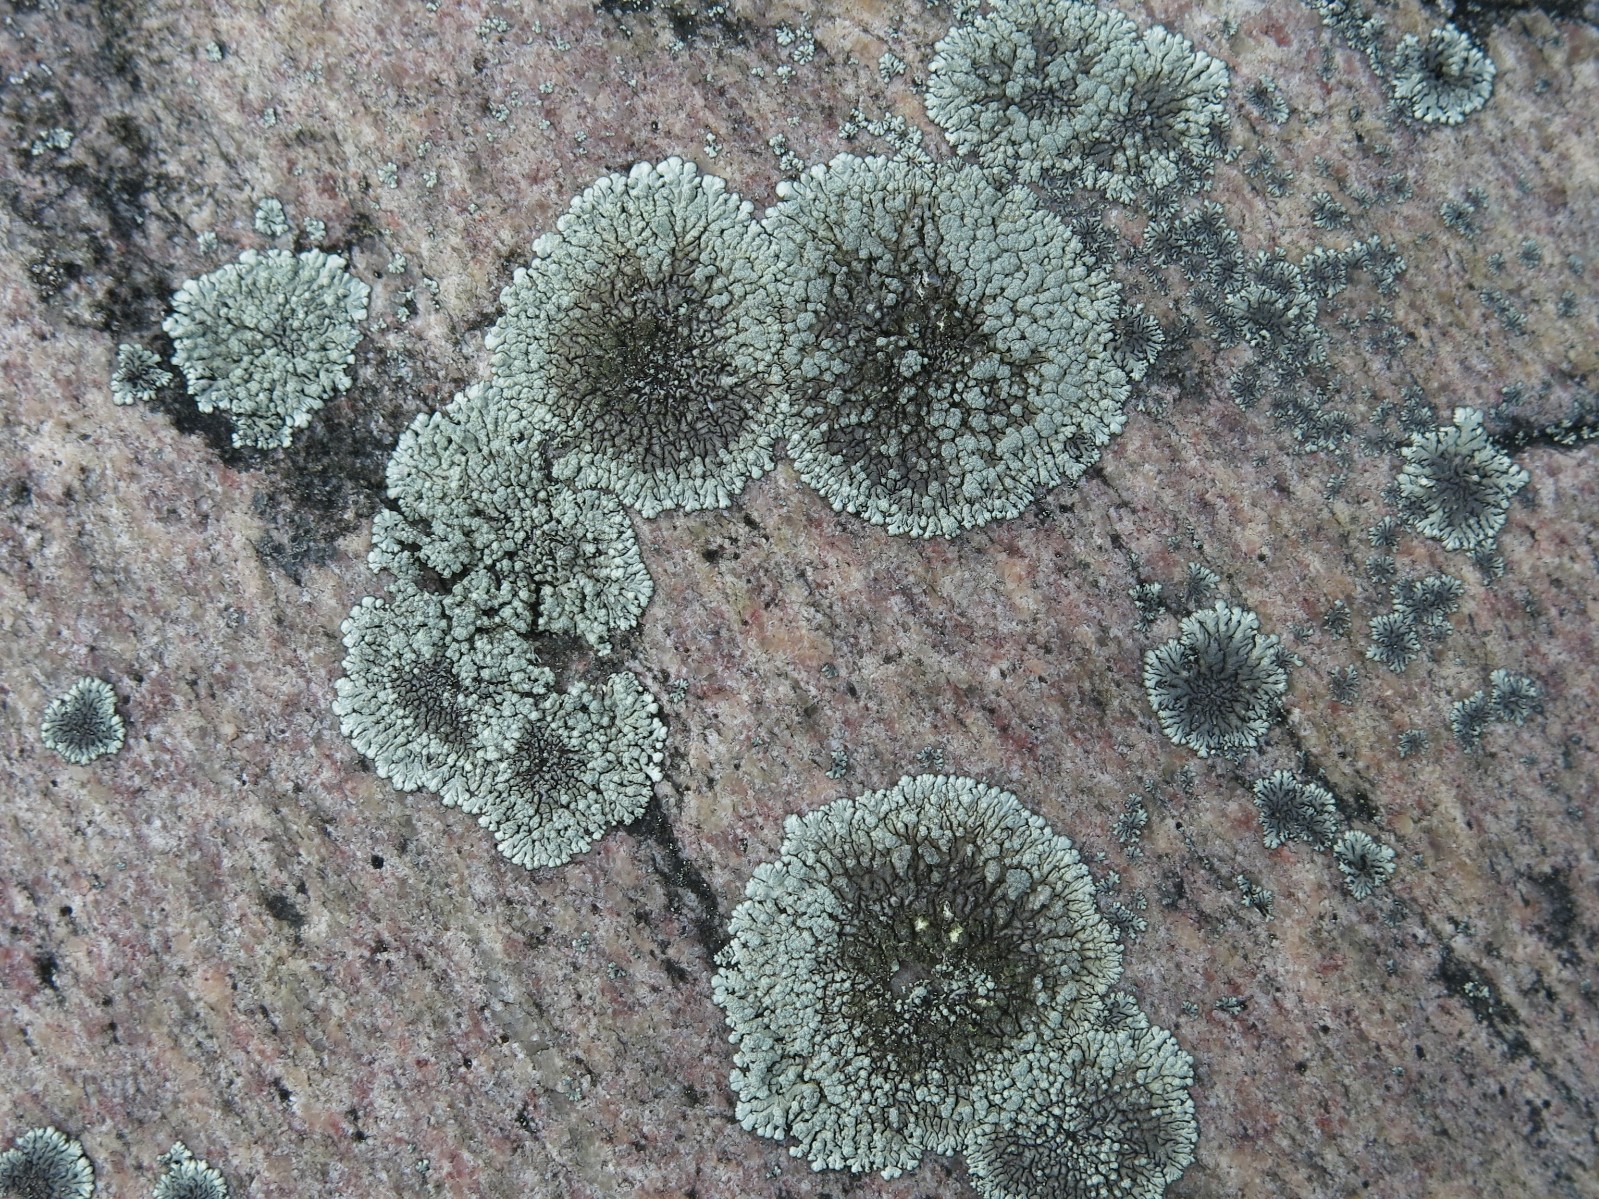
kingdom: Fungi
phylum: Ascomycota
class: Lecanoromycetes
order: Lecanorales
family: Parmeliaceae
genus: Xanthoparmelia
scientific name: Xanthoparmelia mougeotii
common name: liden skållav
